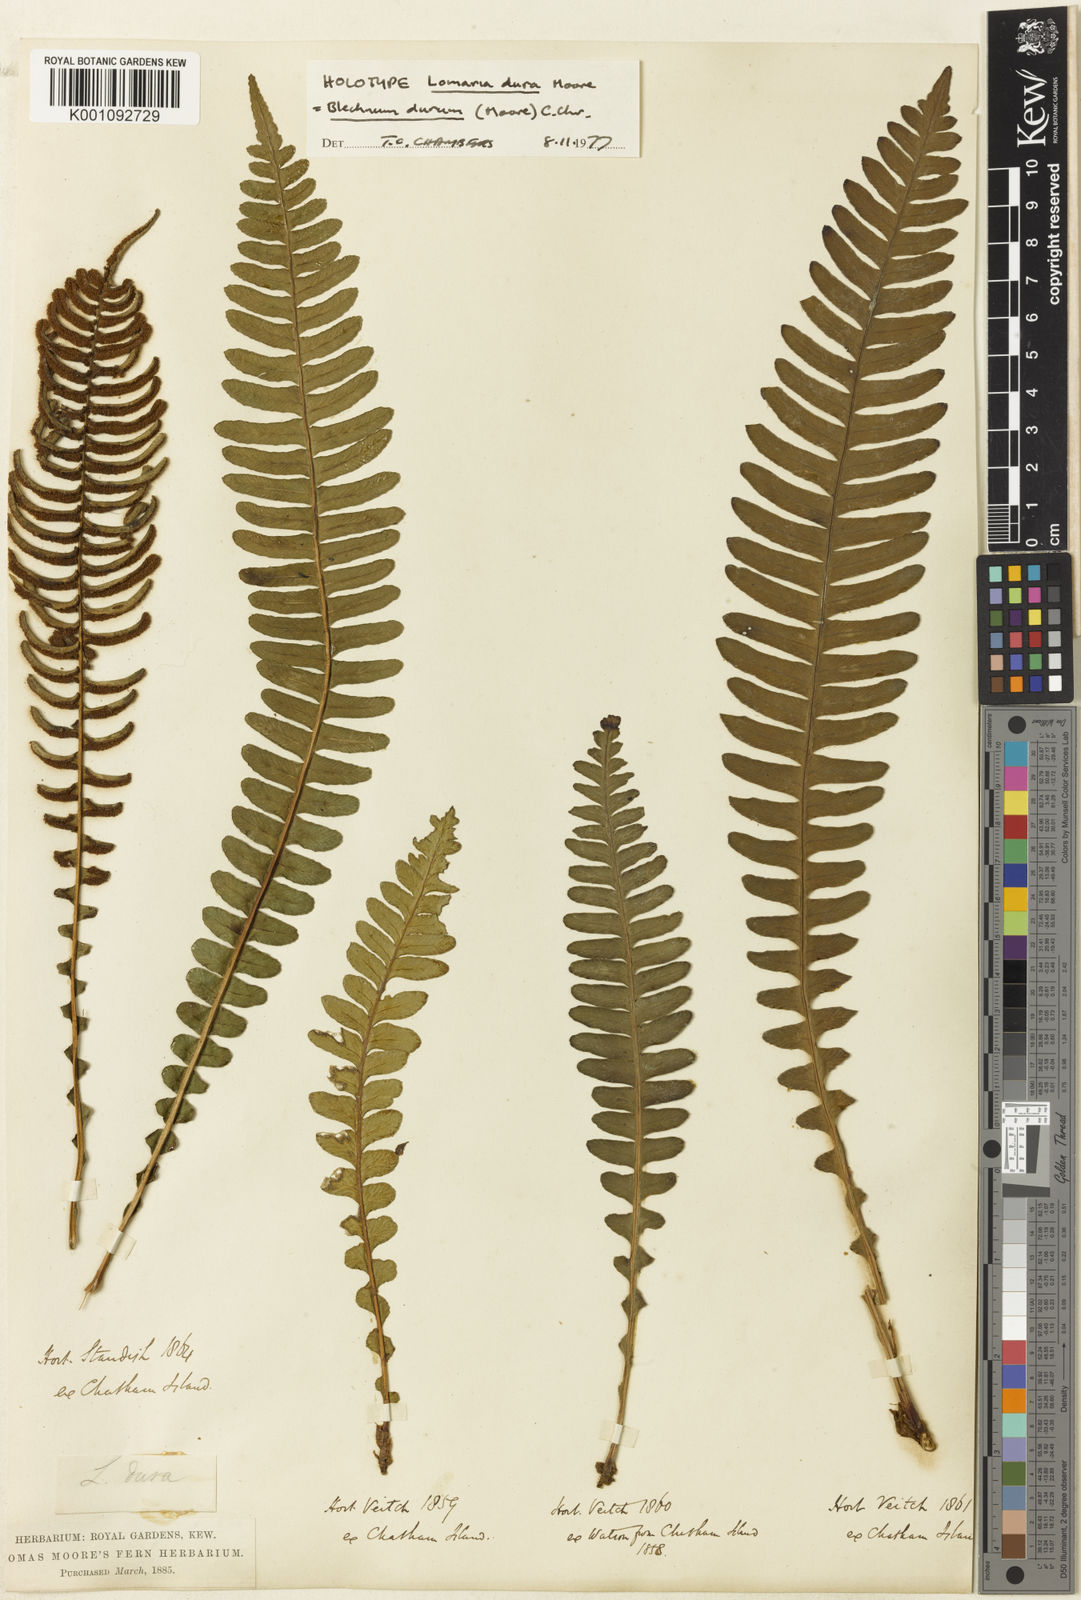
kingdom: Plantae
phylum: Tracheophyta
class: Polypodiopsida
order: Polypodiales
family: Blechnaceae
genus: Austroblechnum
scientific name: Austroblechnum durum
